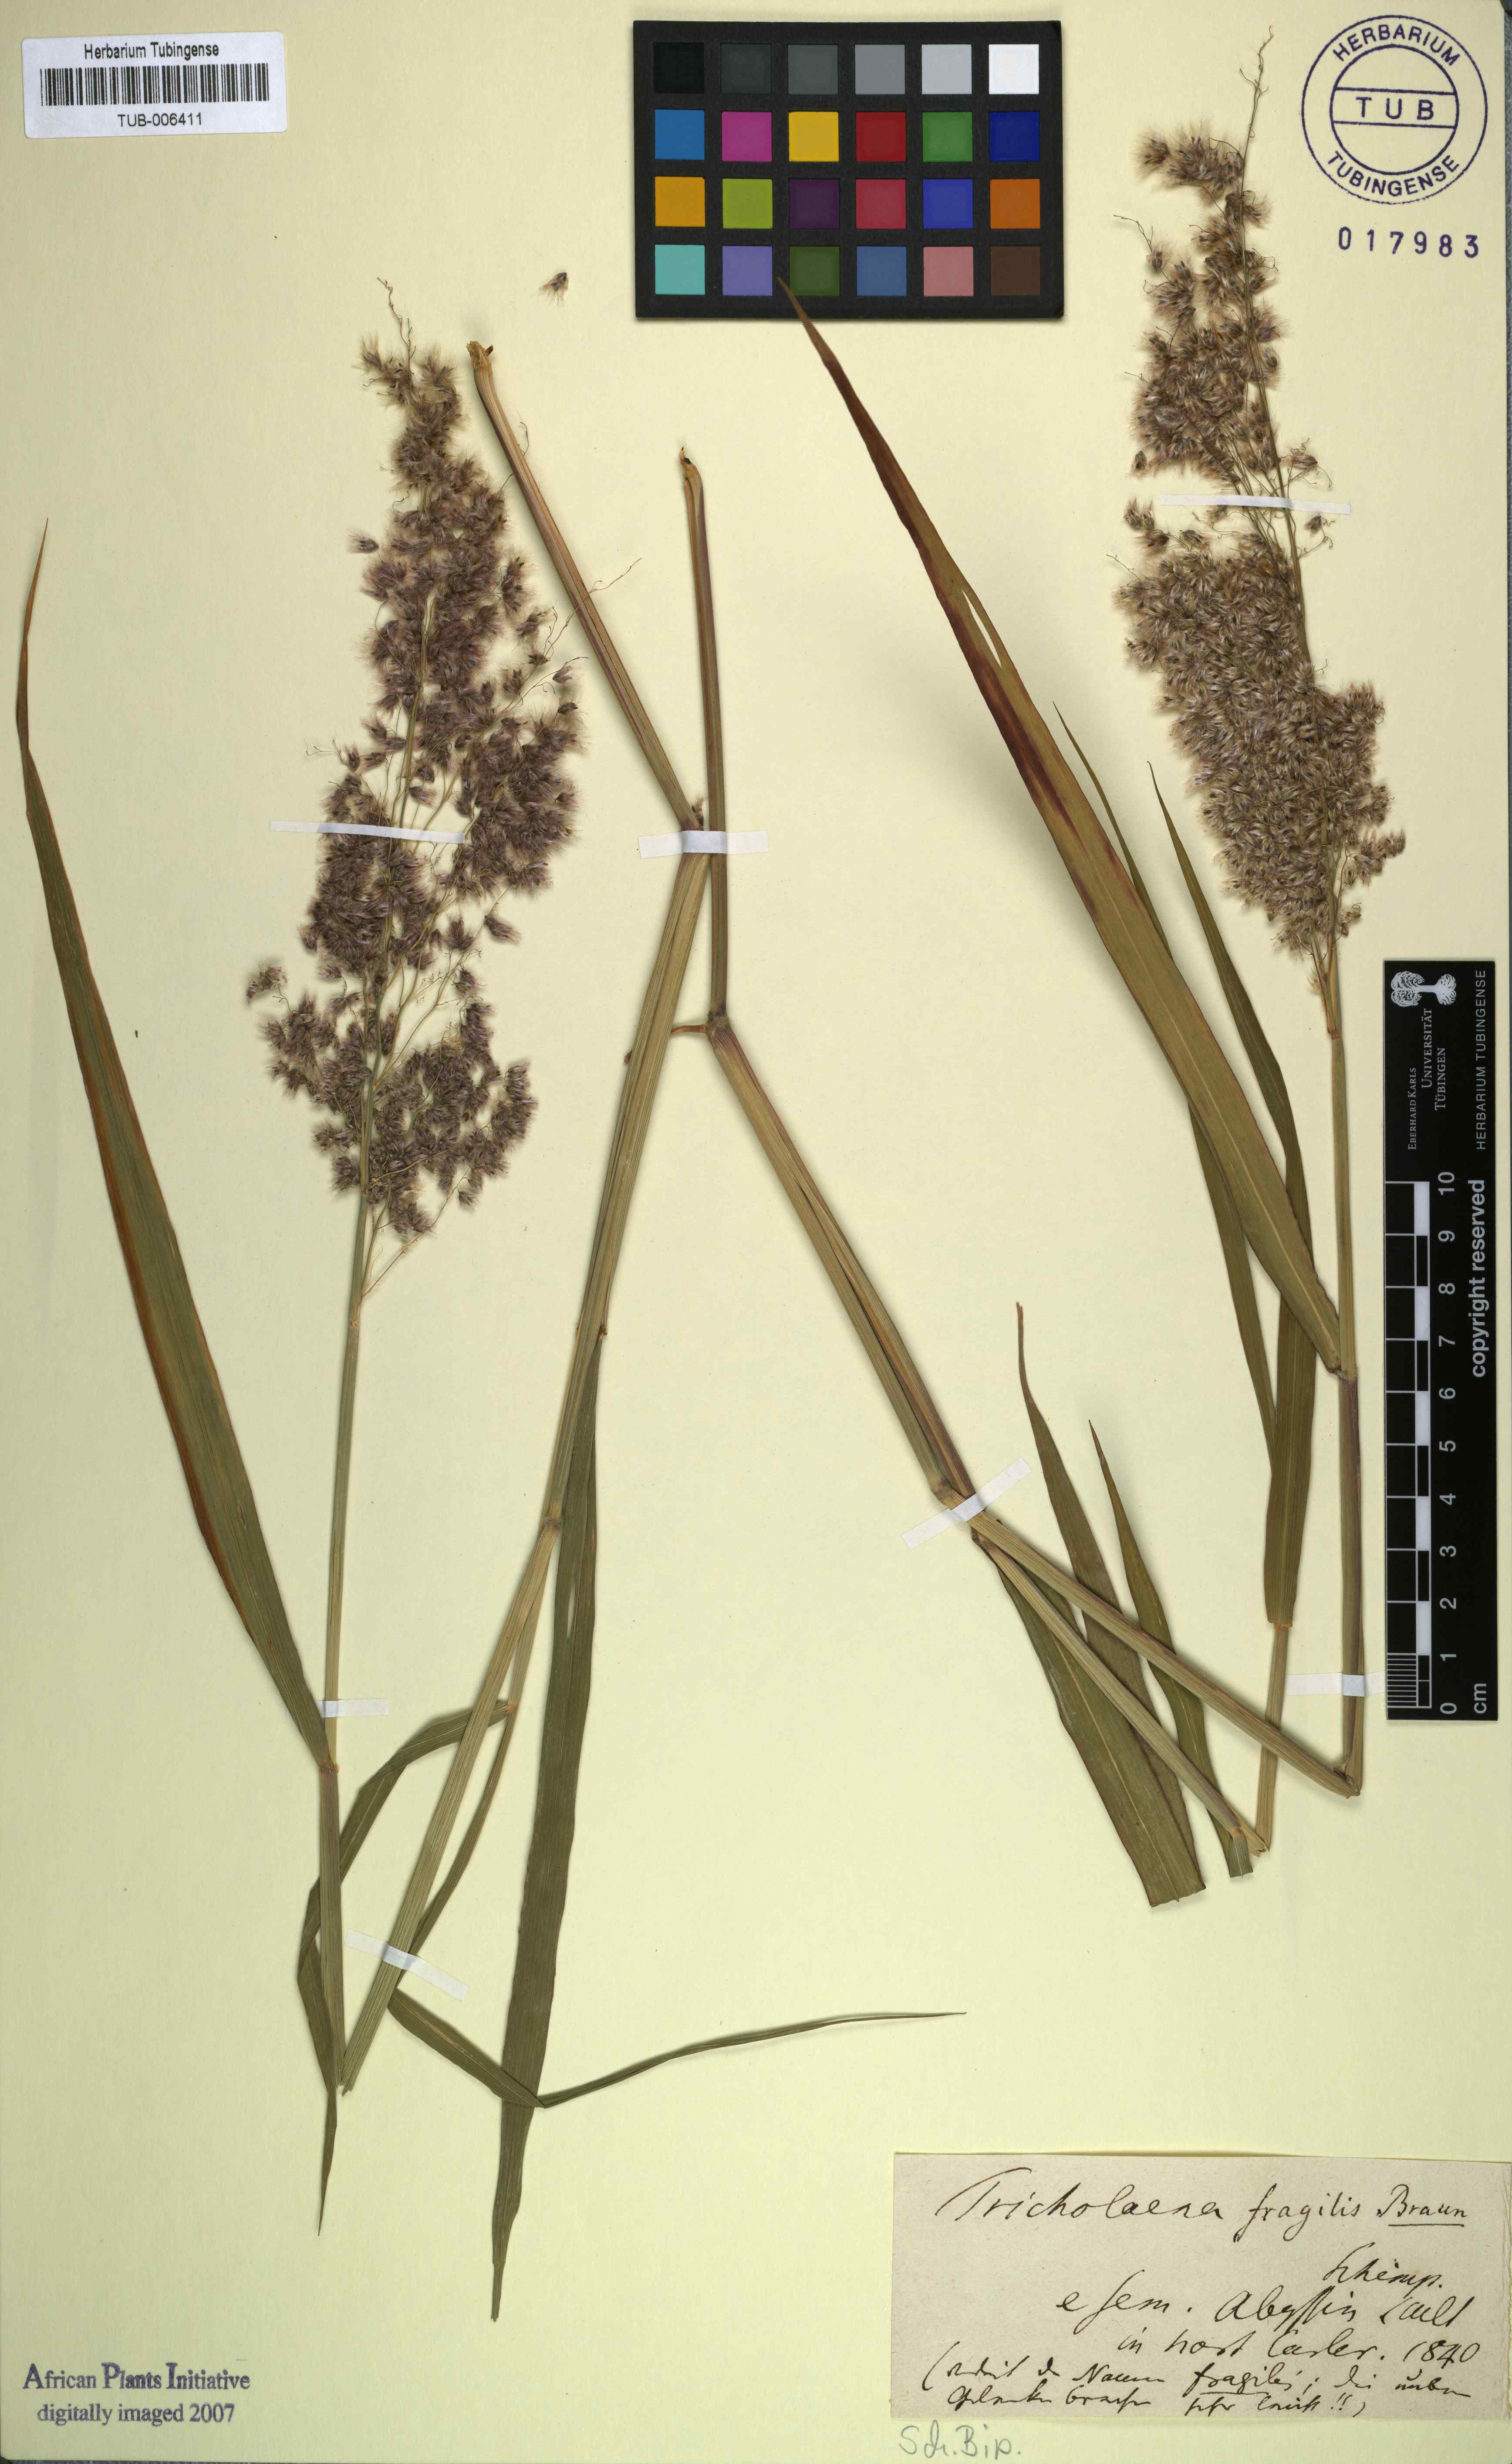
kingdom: Plantae
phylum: Tracheophyta
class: Liliopsida
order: Poales
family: Poaceae
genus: Melinis
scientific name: Melinis repens
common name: Rose natal grass
